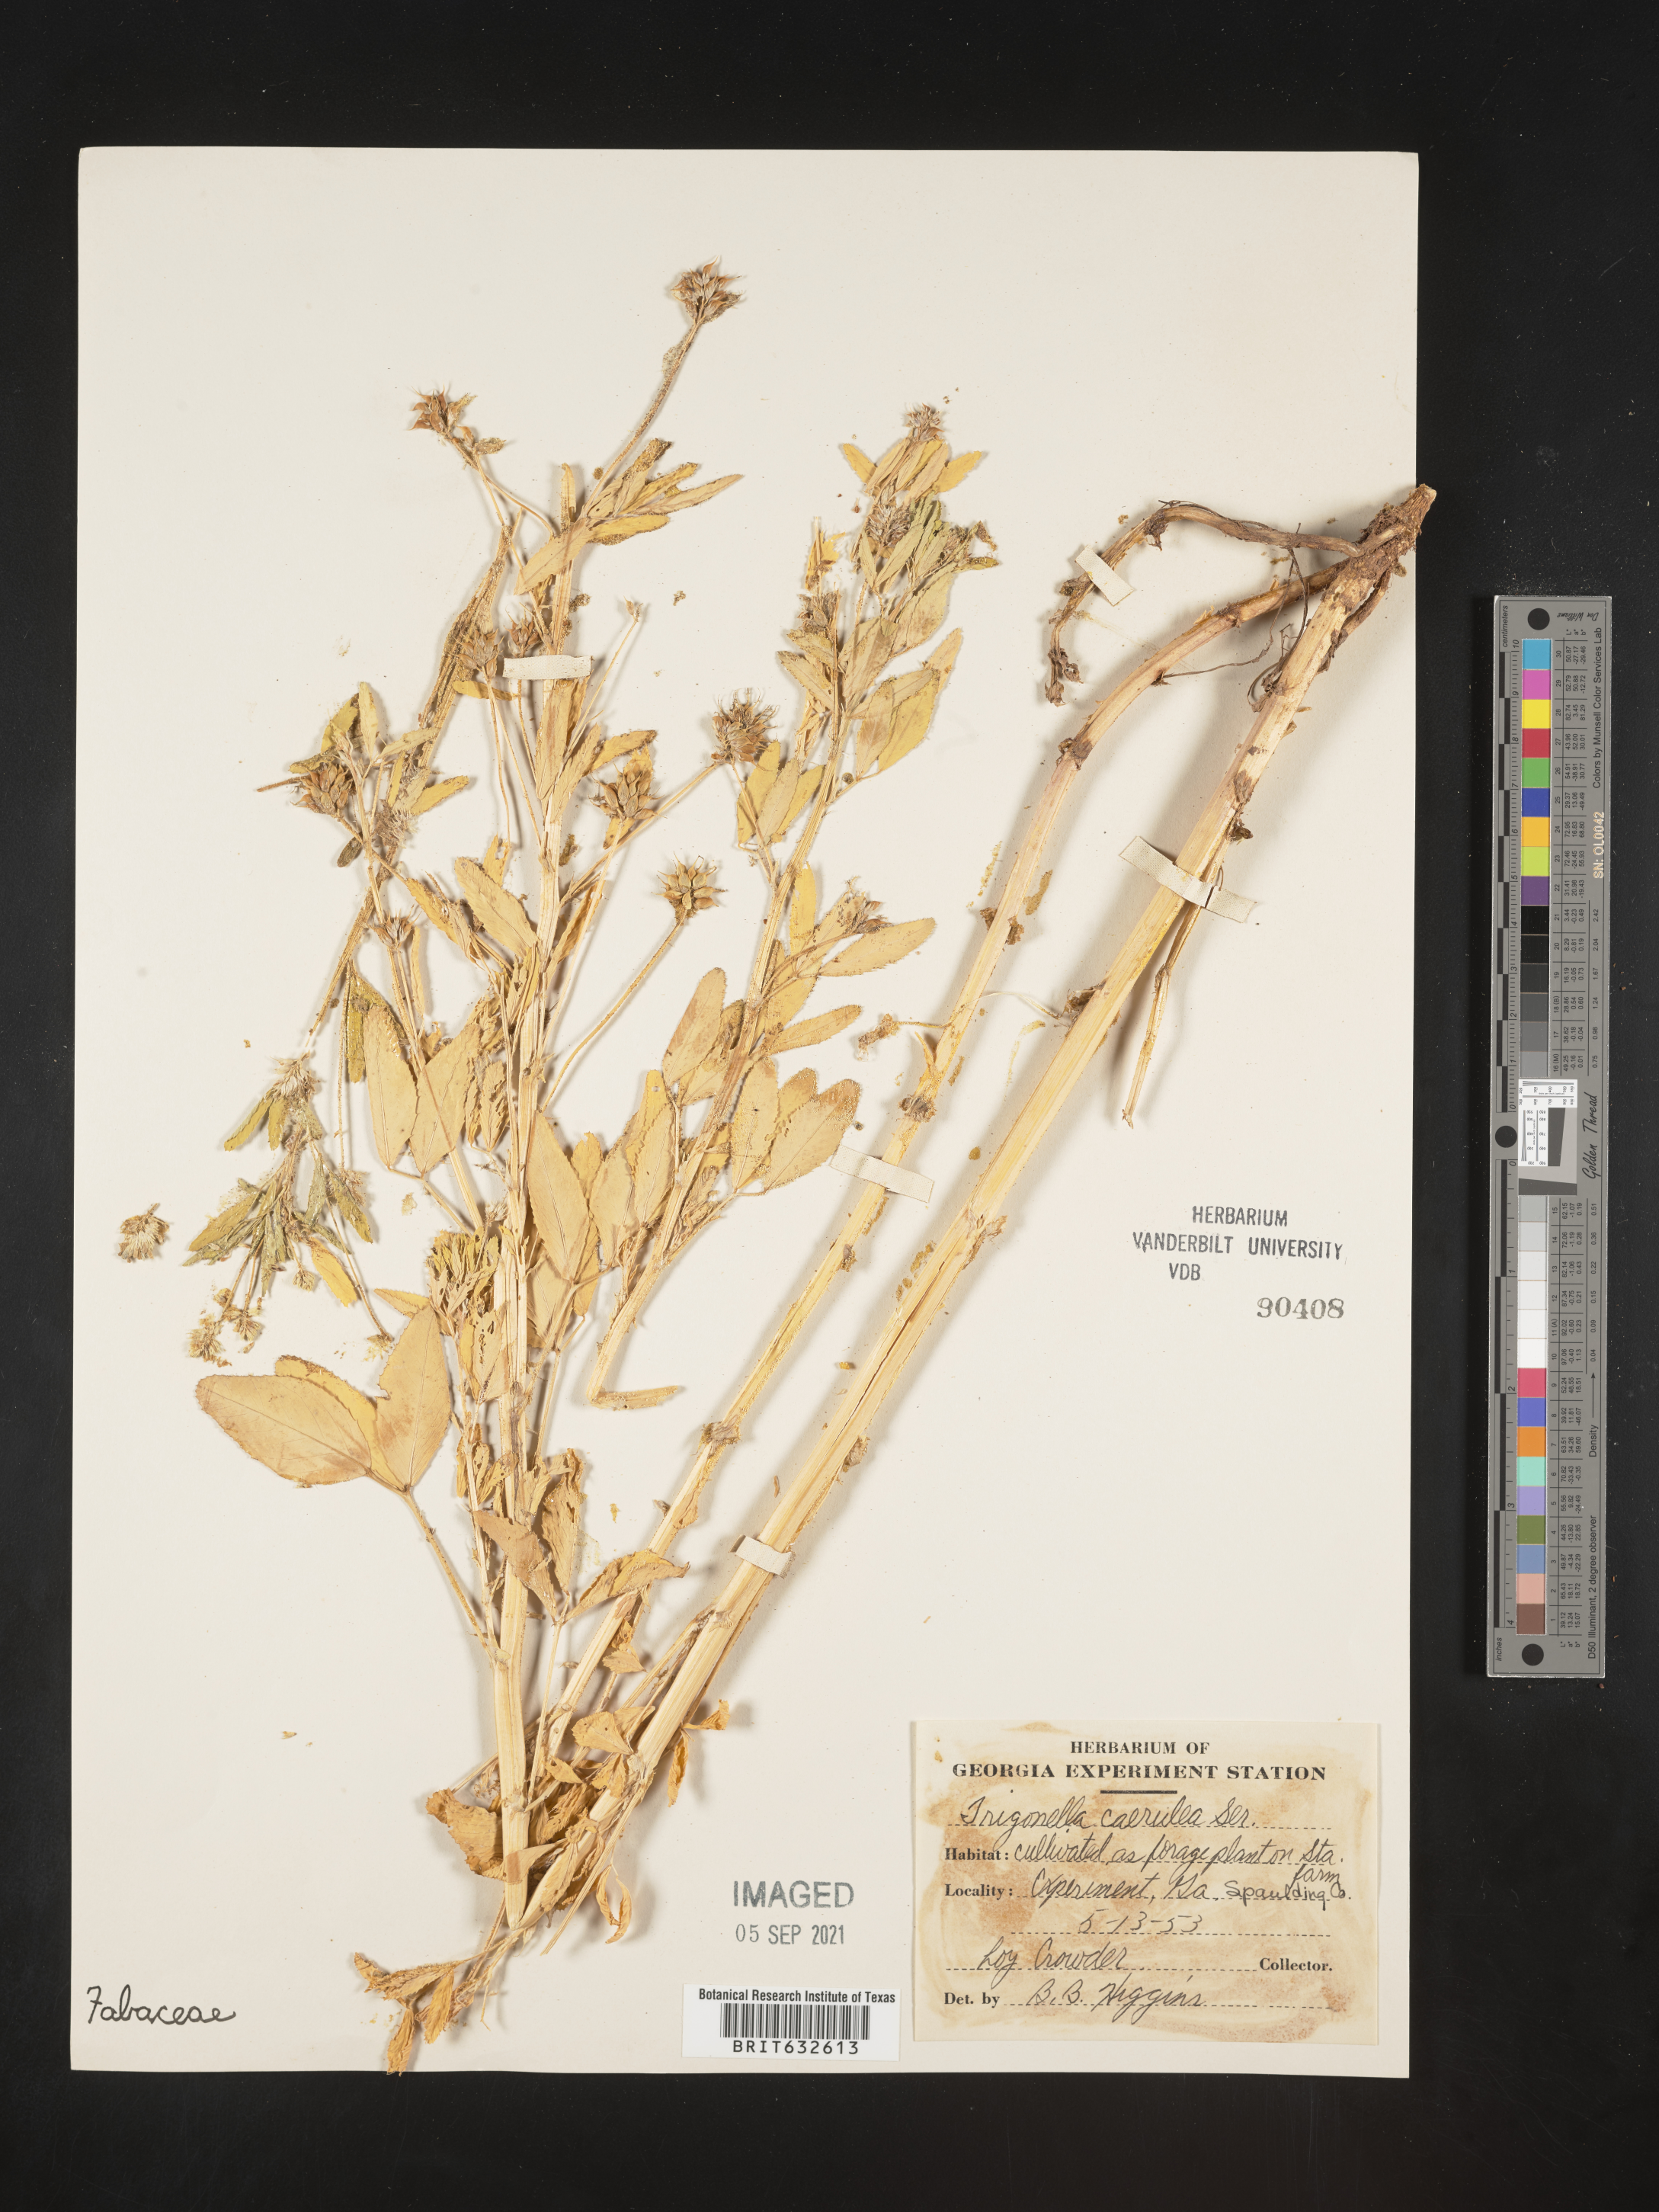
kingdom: Plantae
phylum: Tracheophyta
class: Magnoliopsida
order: Fabales
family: Fabaceae
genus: Trigonella
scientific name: Trigonella caerulea
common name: Blue fenugreek
